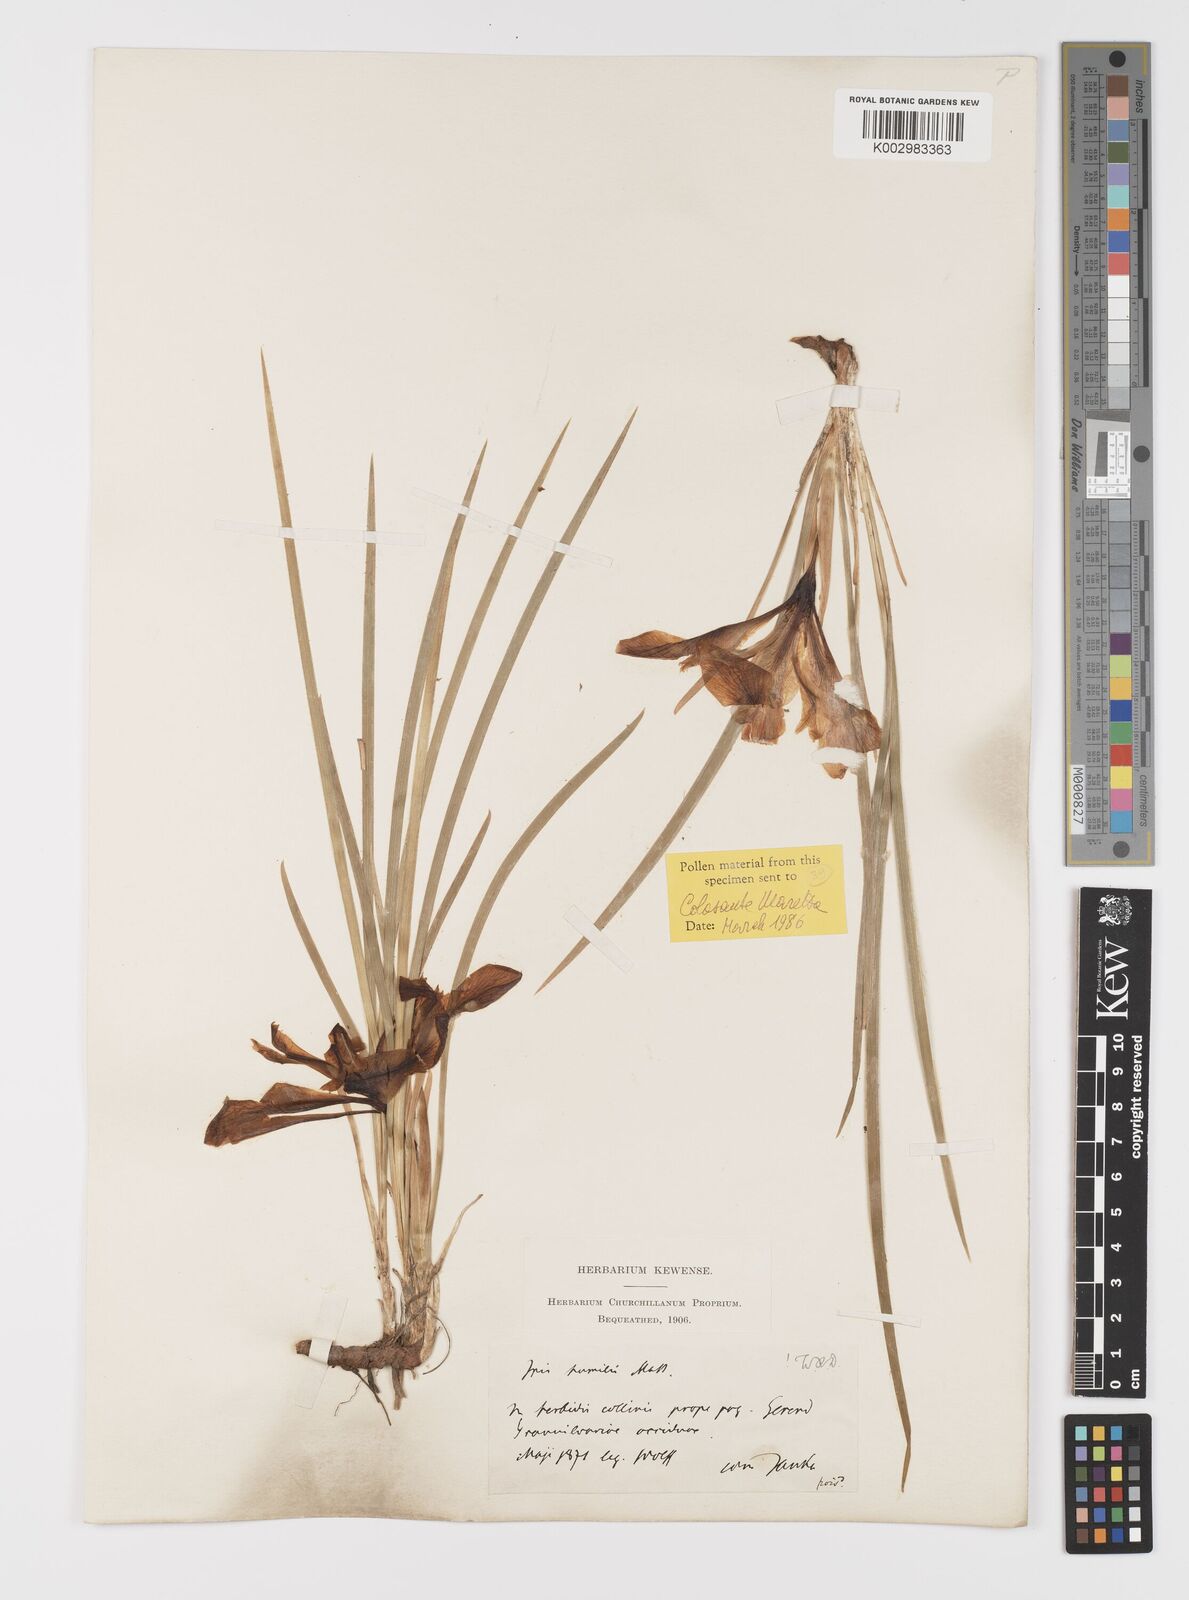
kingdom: Plantae
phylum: Tracheophyta
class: Liliopsida
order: Asparagales
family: Iridaceae
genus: Iris
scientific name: Iris pontica
